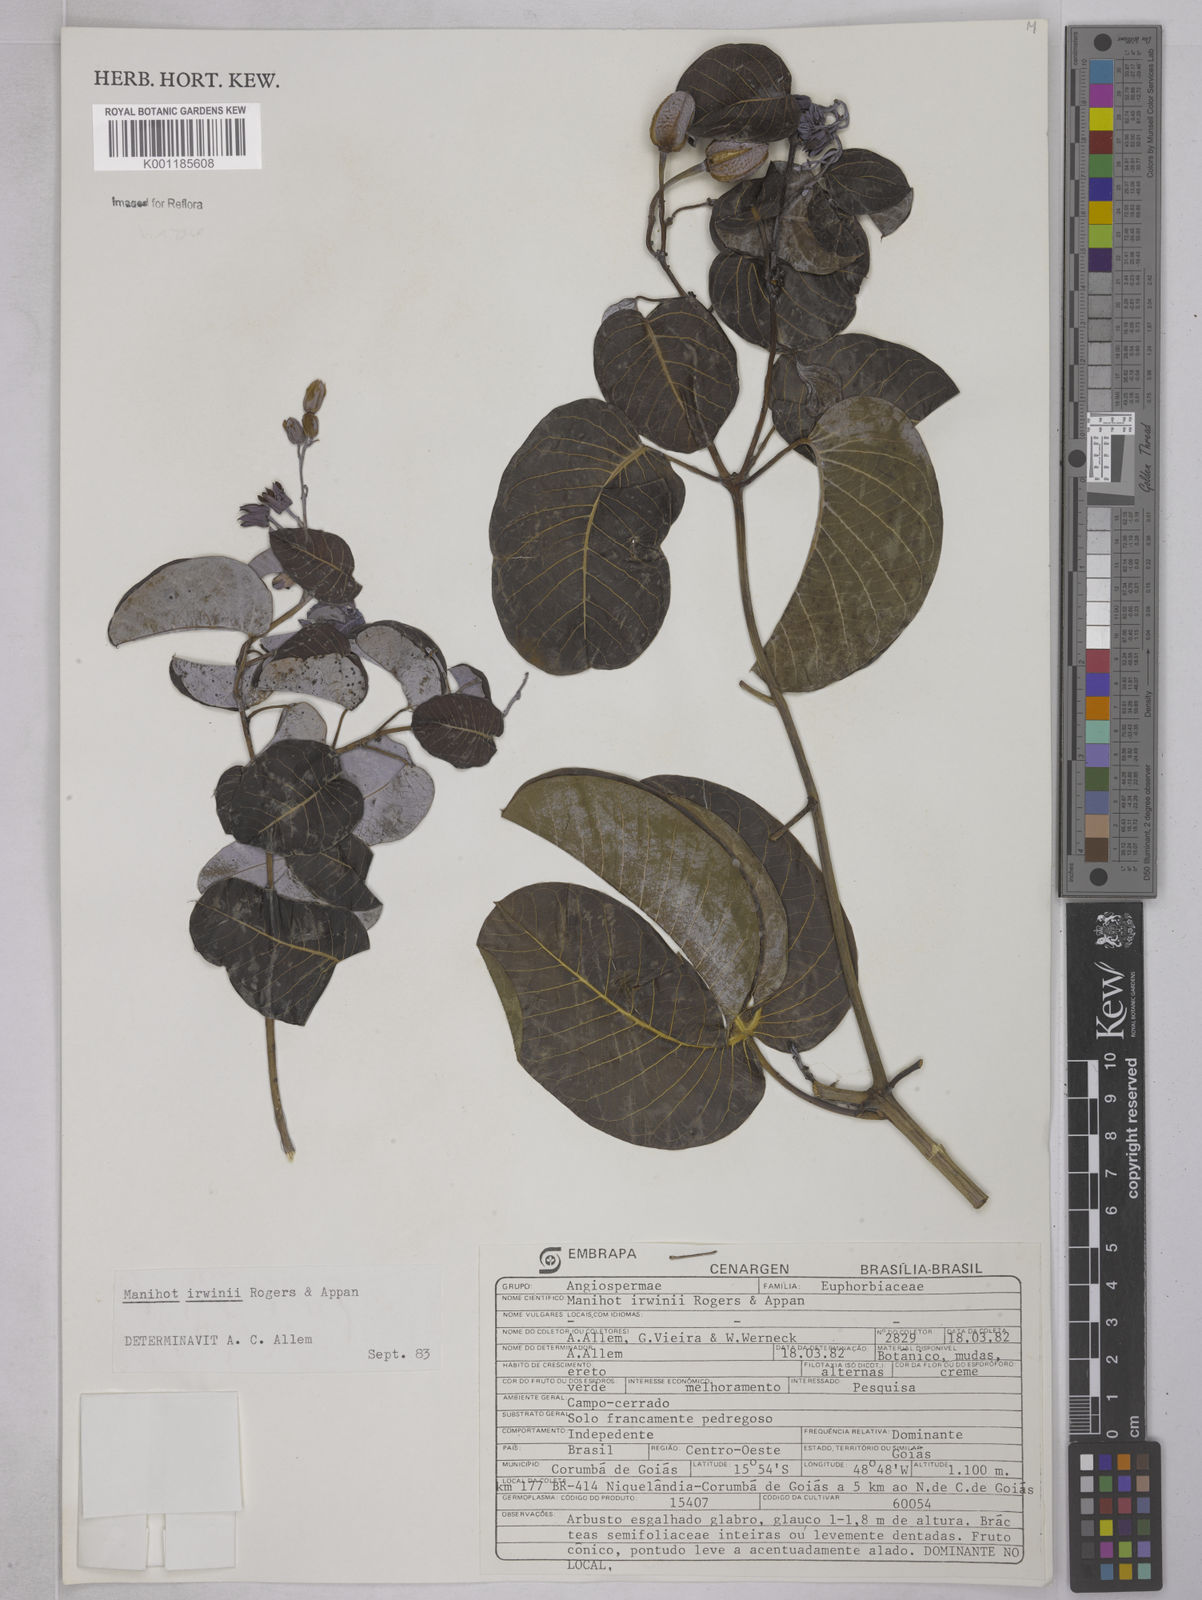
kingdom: Plantae
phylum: Tracheophyta
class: Magnoliopsida
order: Malpighiales
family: Euphorbiaceae
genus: Manihot
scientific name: Manihot irwinii
